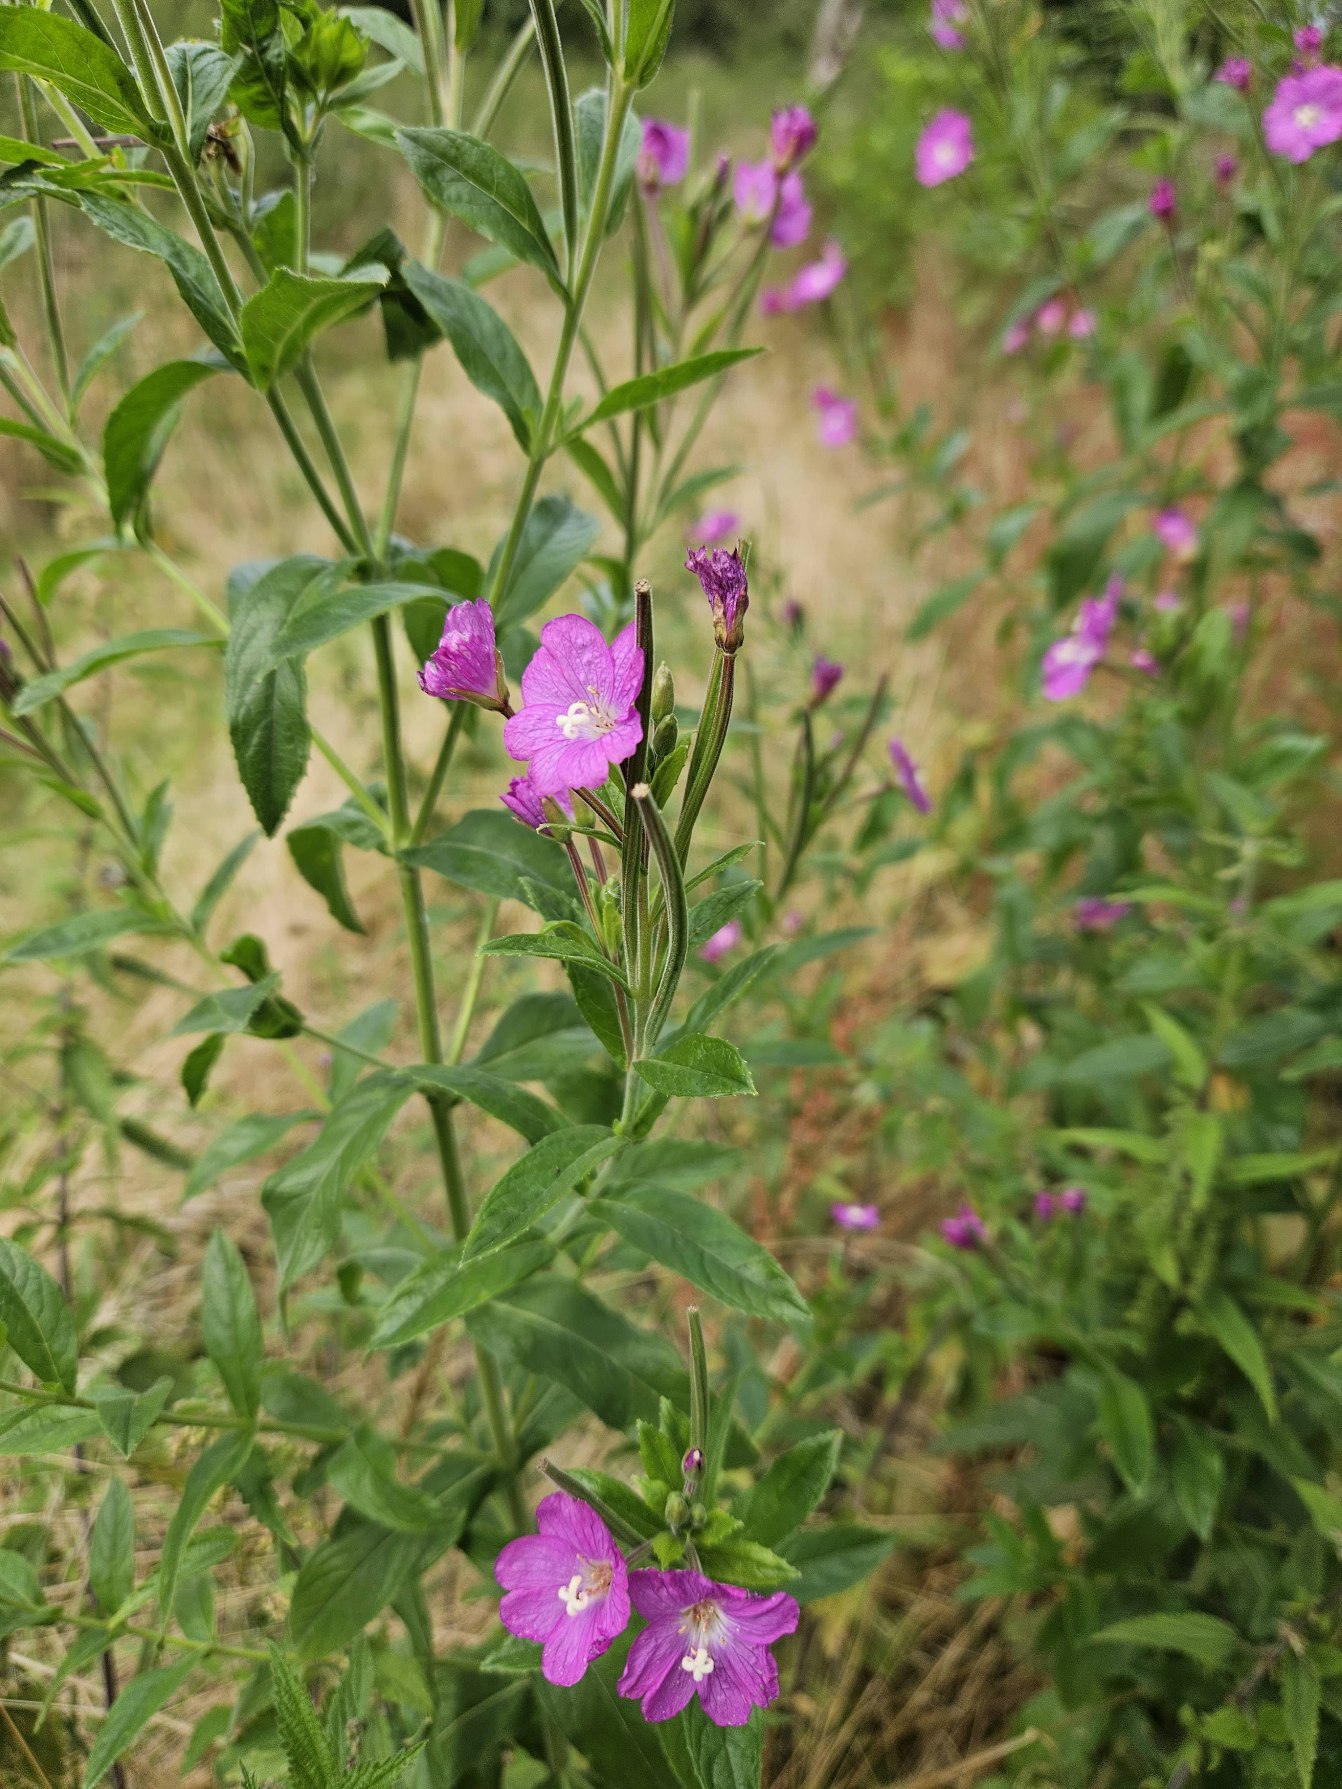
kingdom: Plantae
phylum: Tracheophyta
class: Magnoliopsida
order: Myrtales
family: Onagraceae
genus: Epilobium
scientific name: Epilobium hirsutum
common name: Lådden dueurt
